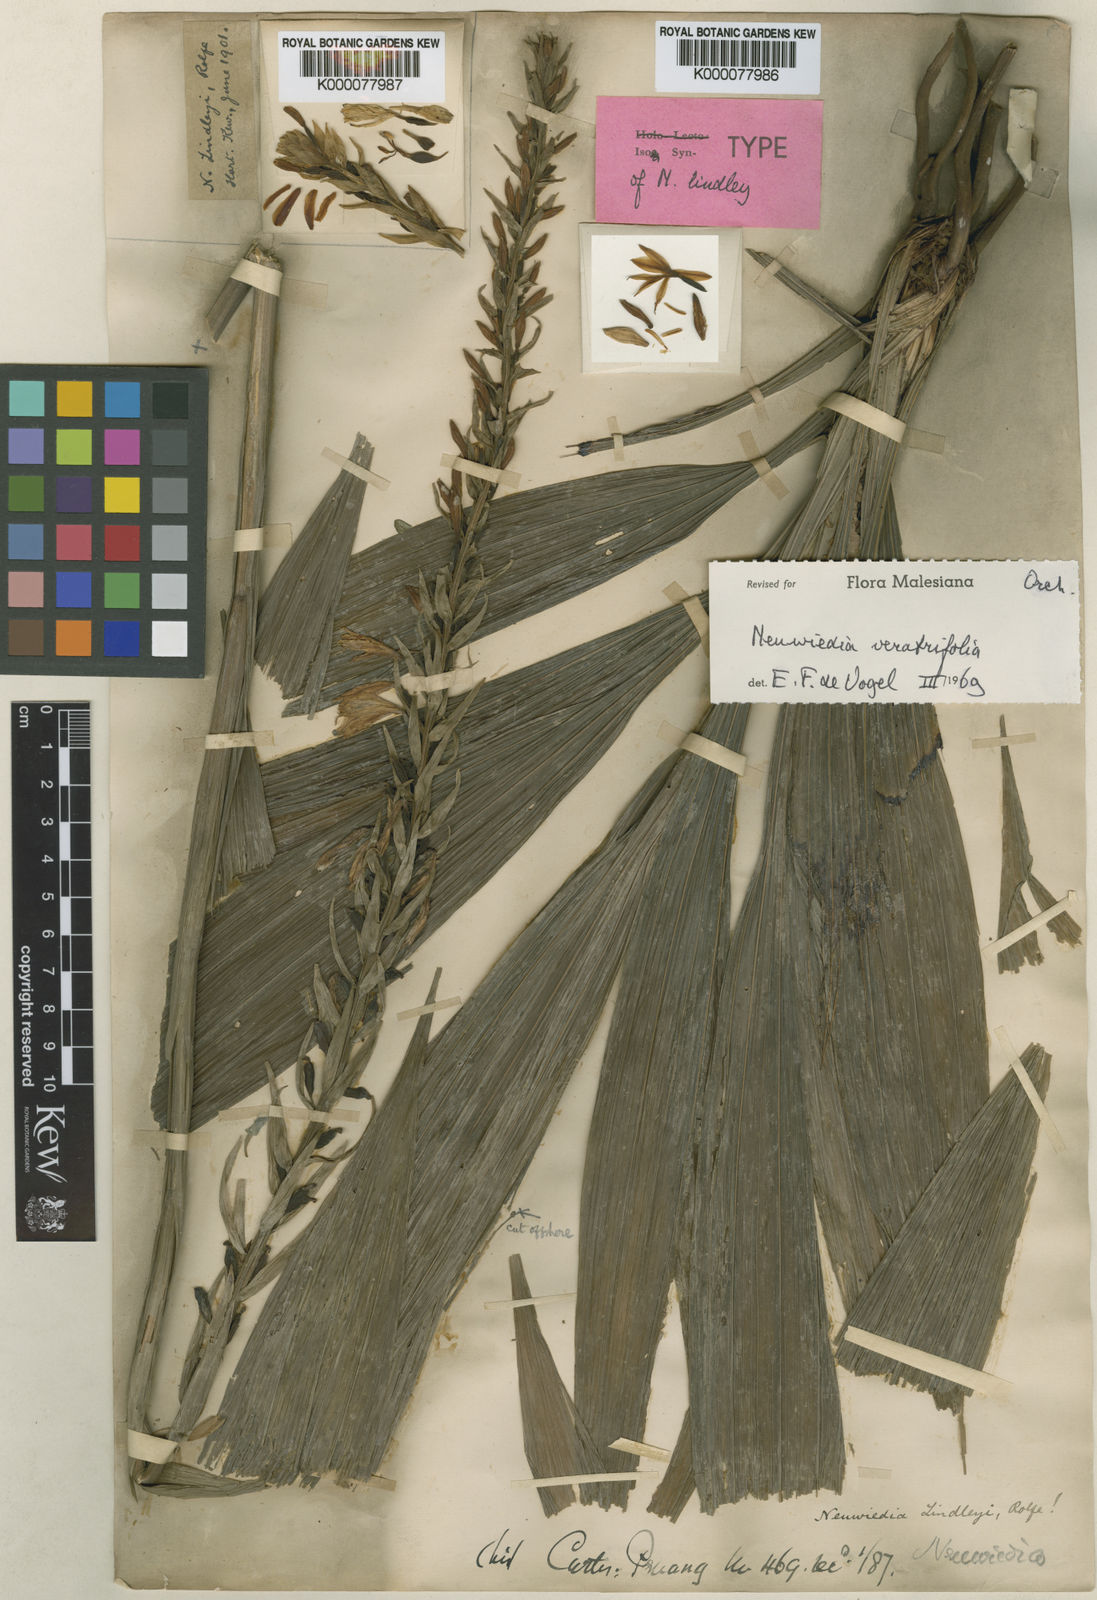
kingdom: Plantae
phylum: Tracheophyta
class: Liliopsida
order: Asparagales
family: Orchidaceae
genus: Neuwiedia
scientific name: Neuwiedia veratrifolia
